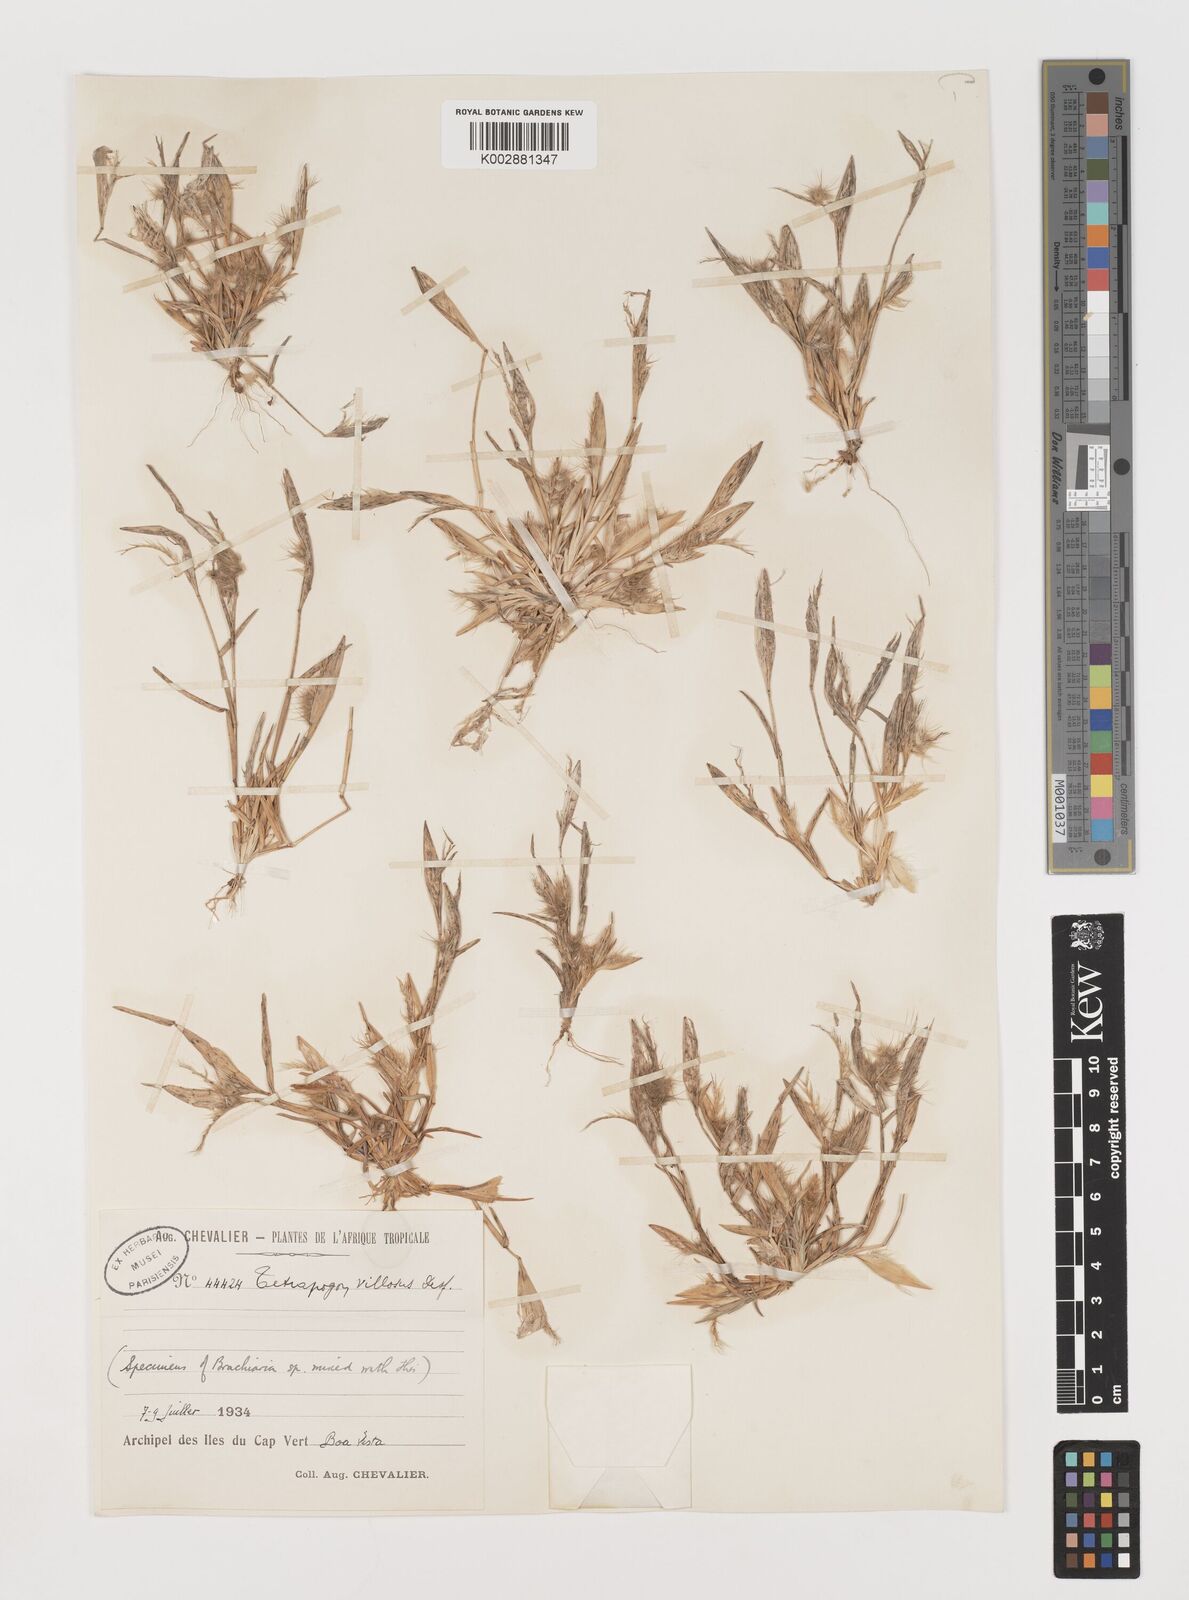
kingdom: Plantae
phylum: Tracheophyta
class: Liliopsida
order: Poales
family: Poaceae
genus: Tetrapogon
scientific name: Tetrapogon cenchriformis
